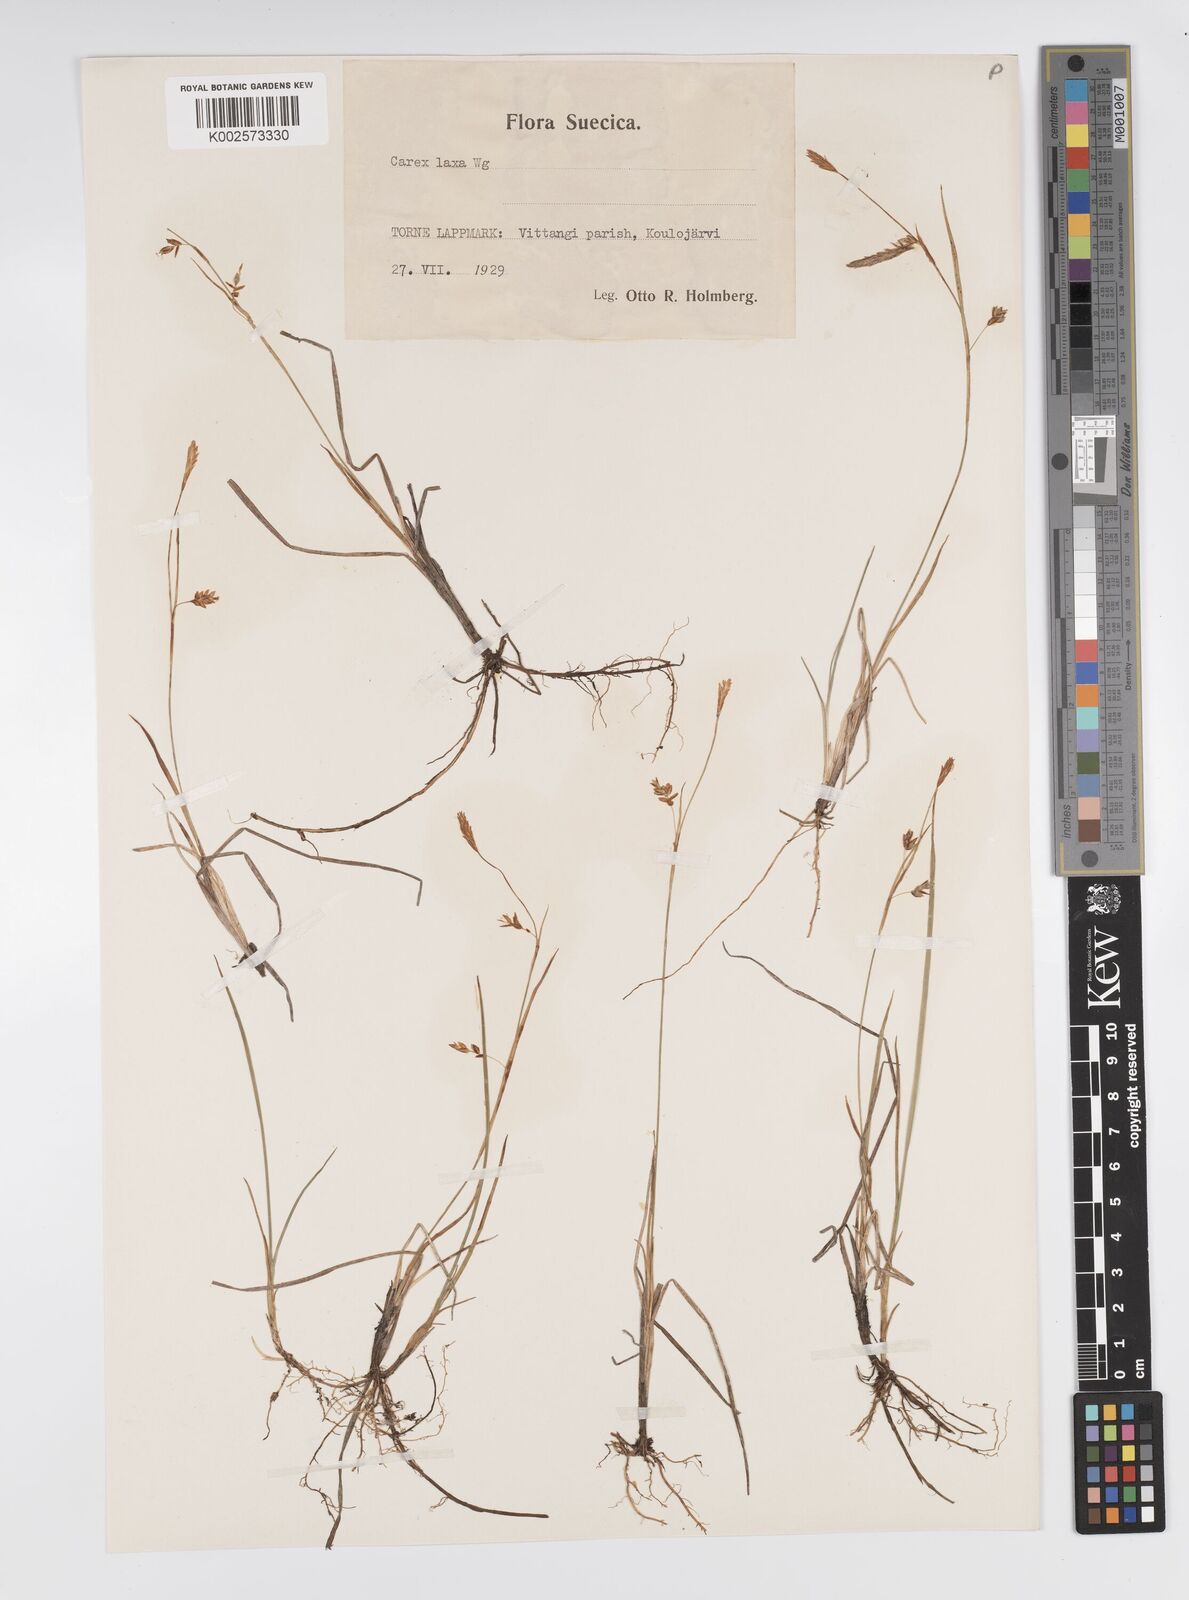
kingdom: Plantae
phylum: Tracheophyta
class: Liliopsida
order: Poales
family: Cyperaceae
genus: Carex
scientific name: Carex laxa
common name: Weak sedge
